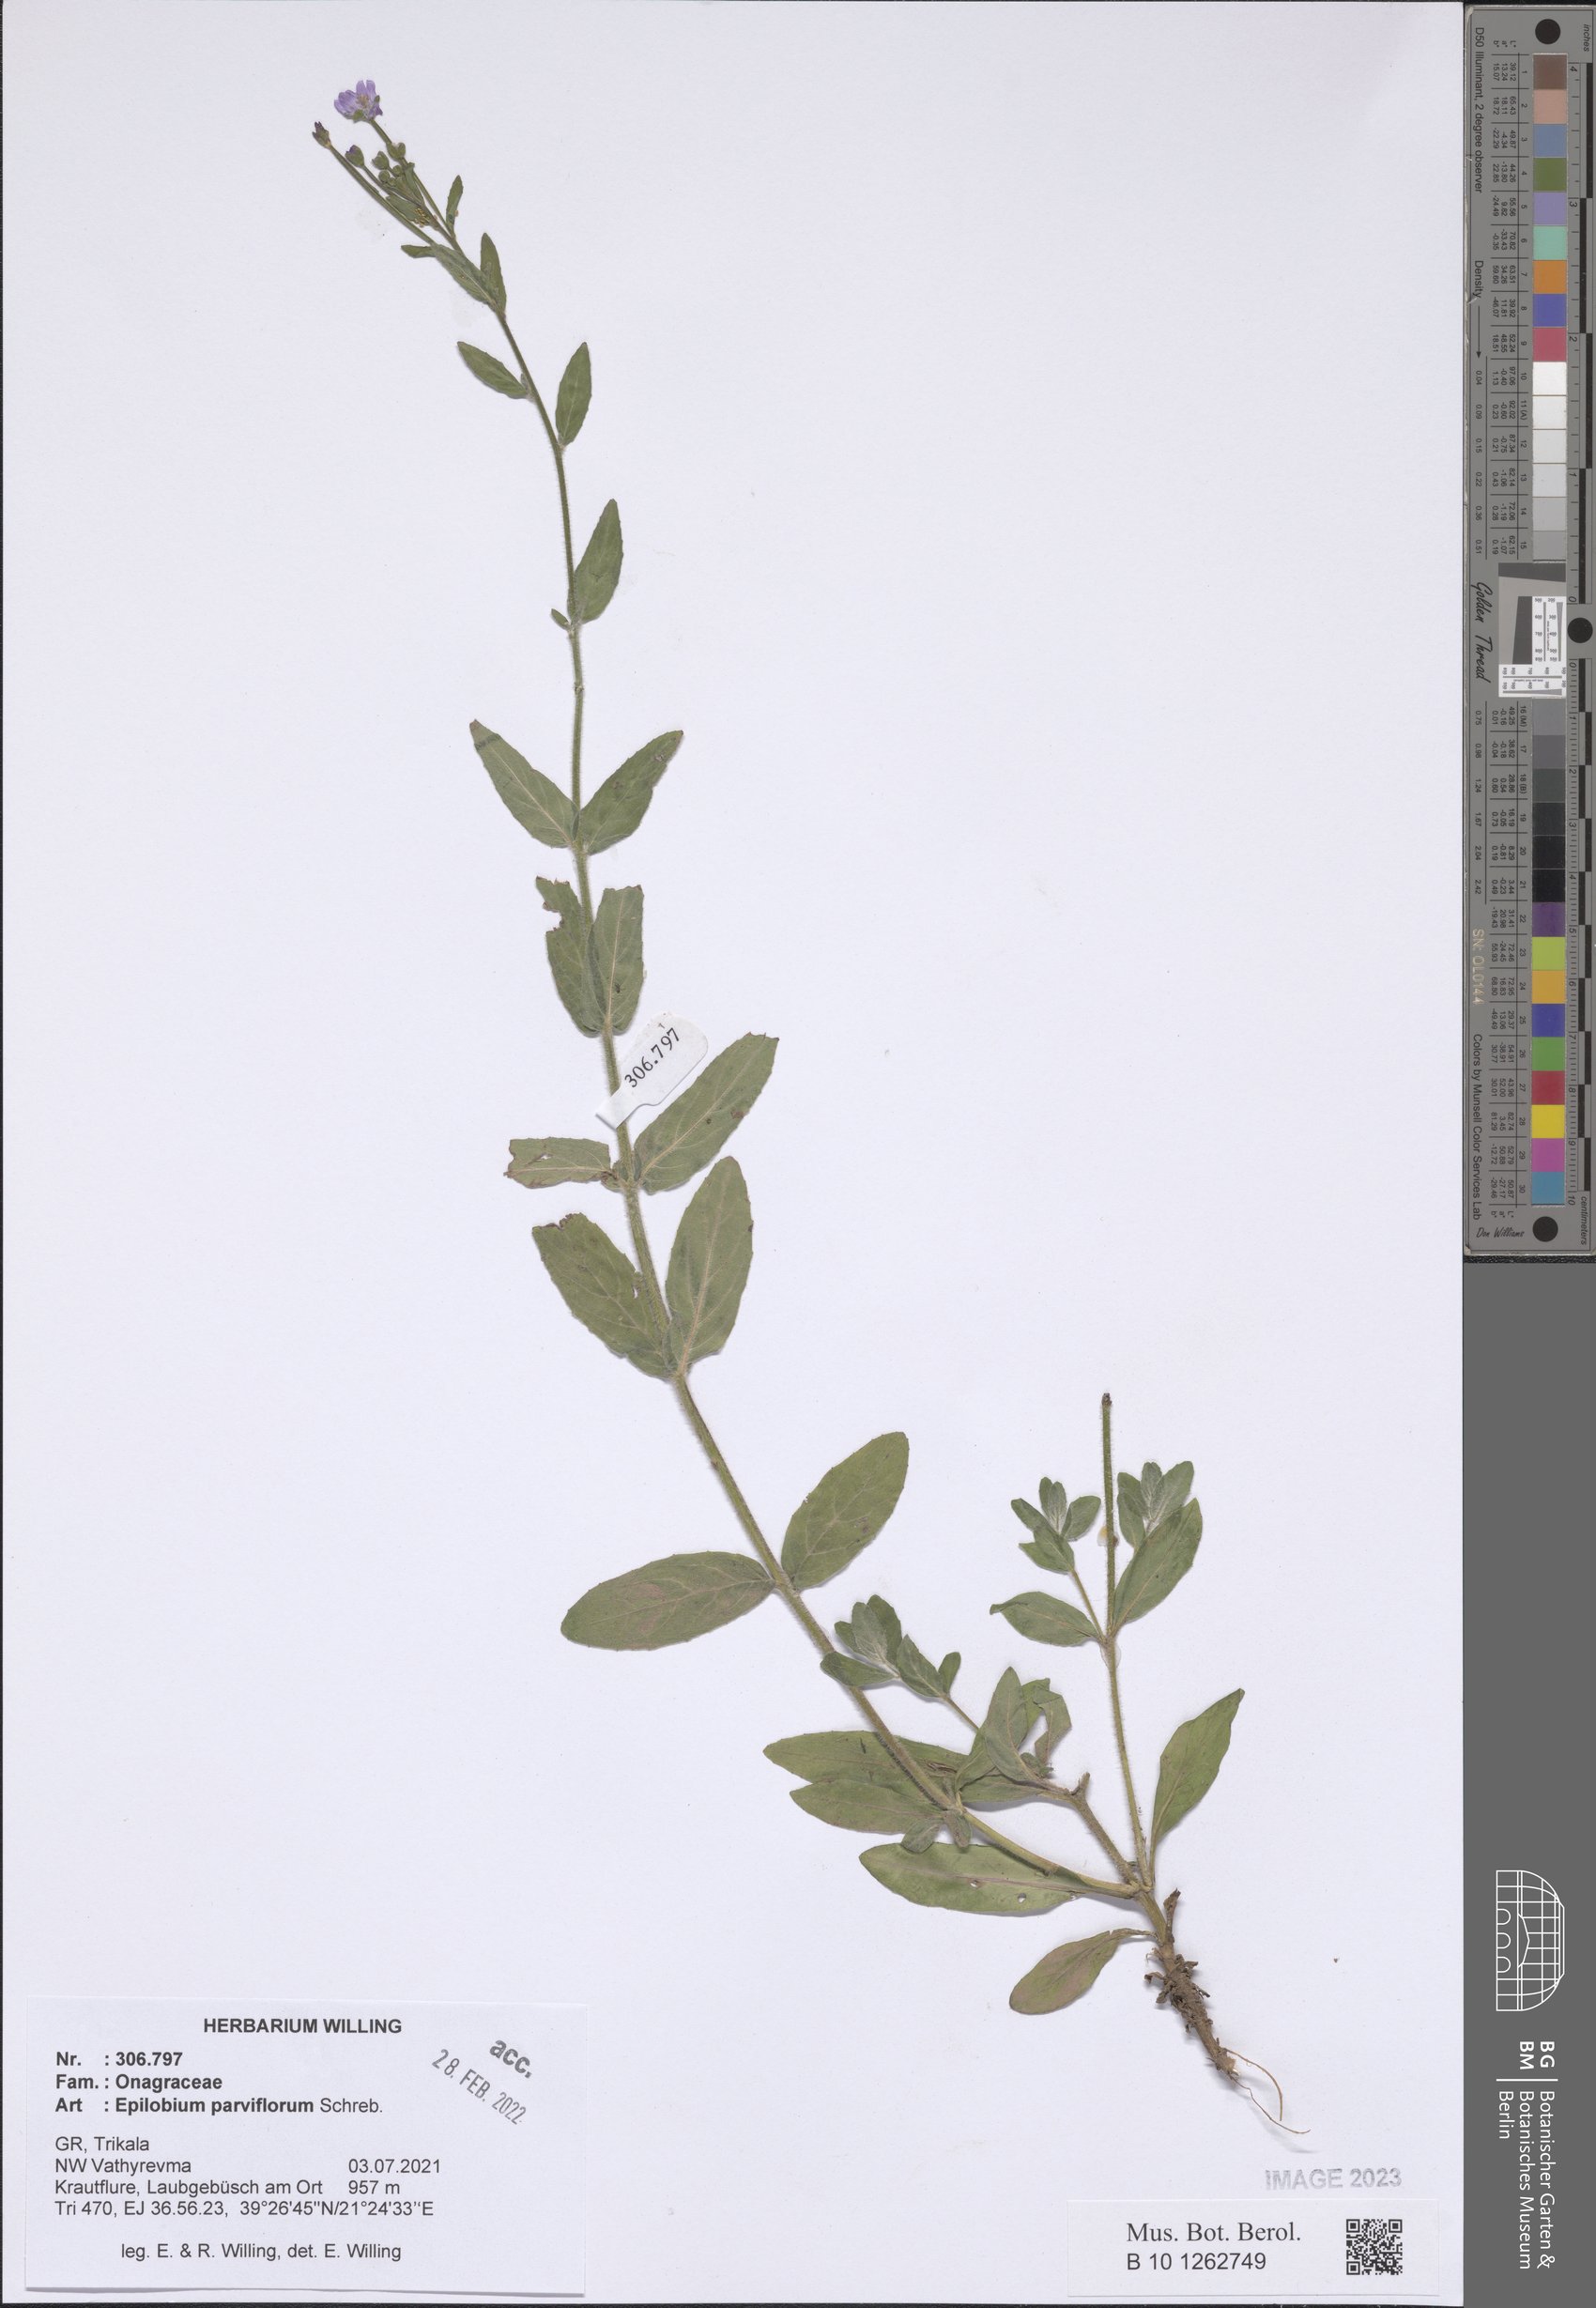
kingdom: Plantae
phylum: Tracheophyta
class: Magnoliopsida
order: Myrtales
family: Onagraceae
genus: Epilobium
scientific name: Epilobium parviflorum
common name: Hoary willowherb
